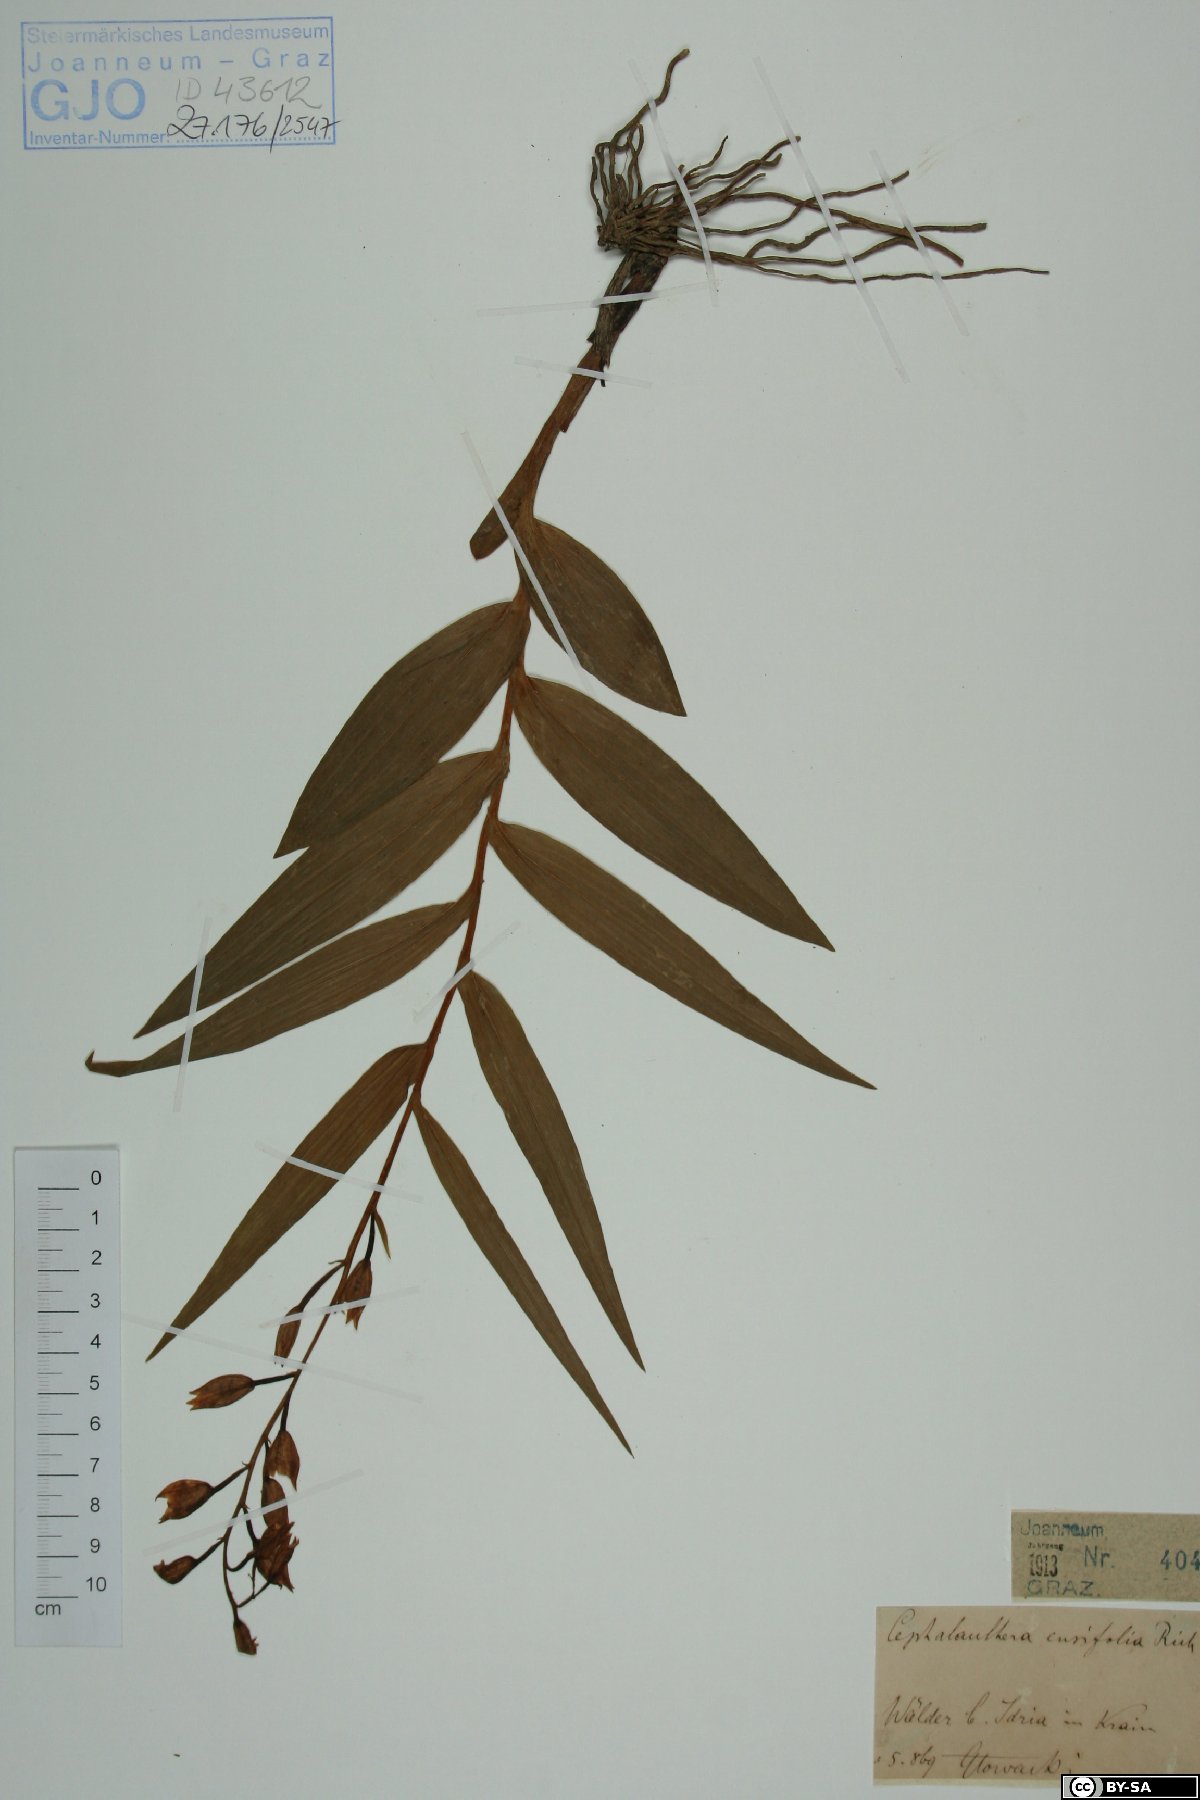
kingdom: Plantae
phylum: Tracheophyta
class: Liliopsida
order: Asparagales
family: Orchidaceae
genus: Cephalanthera
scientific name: Cephalanthera longifolia
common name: Narrow-leaved helleborine
